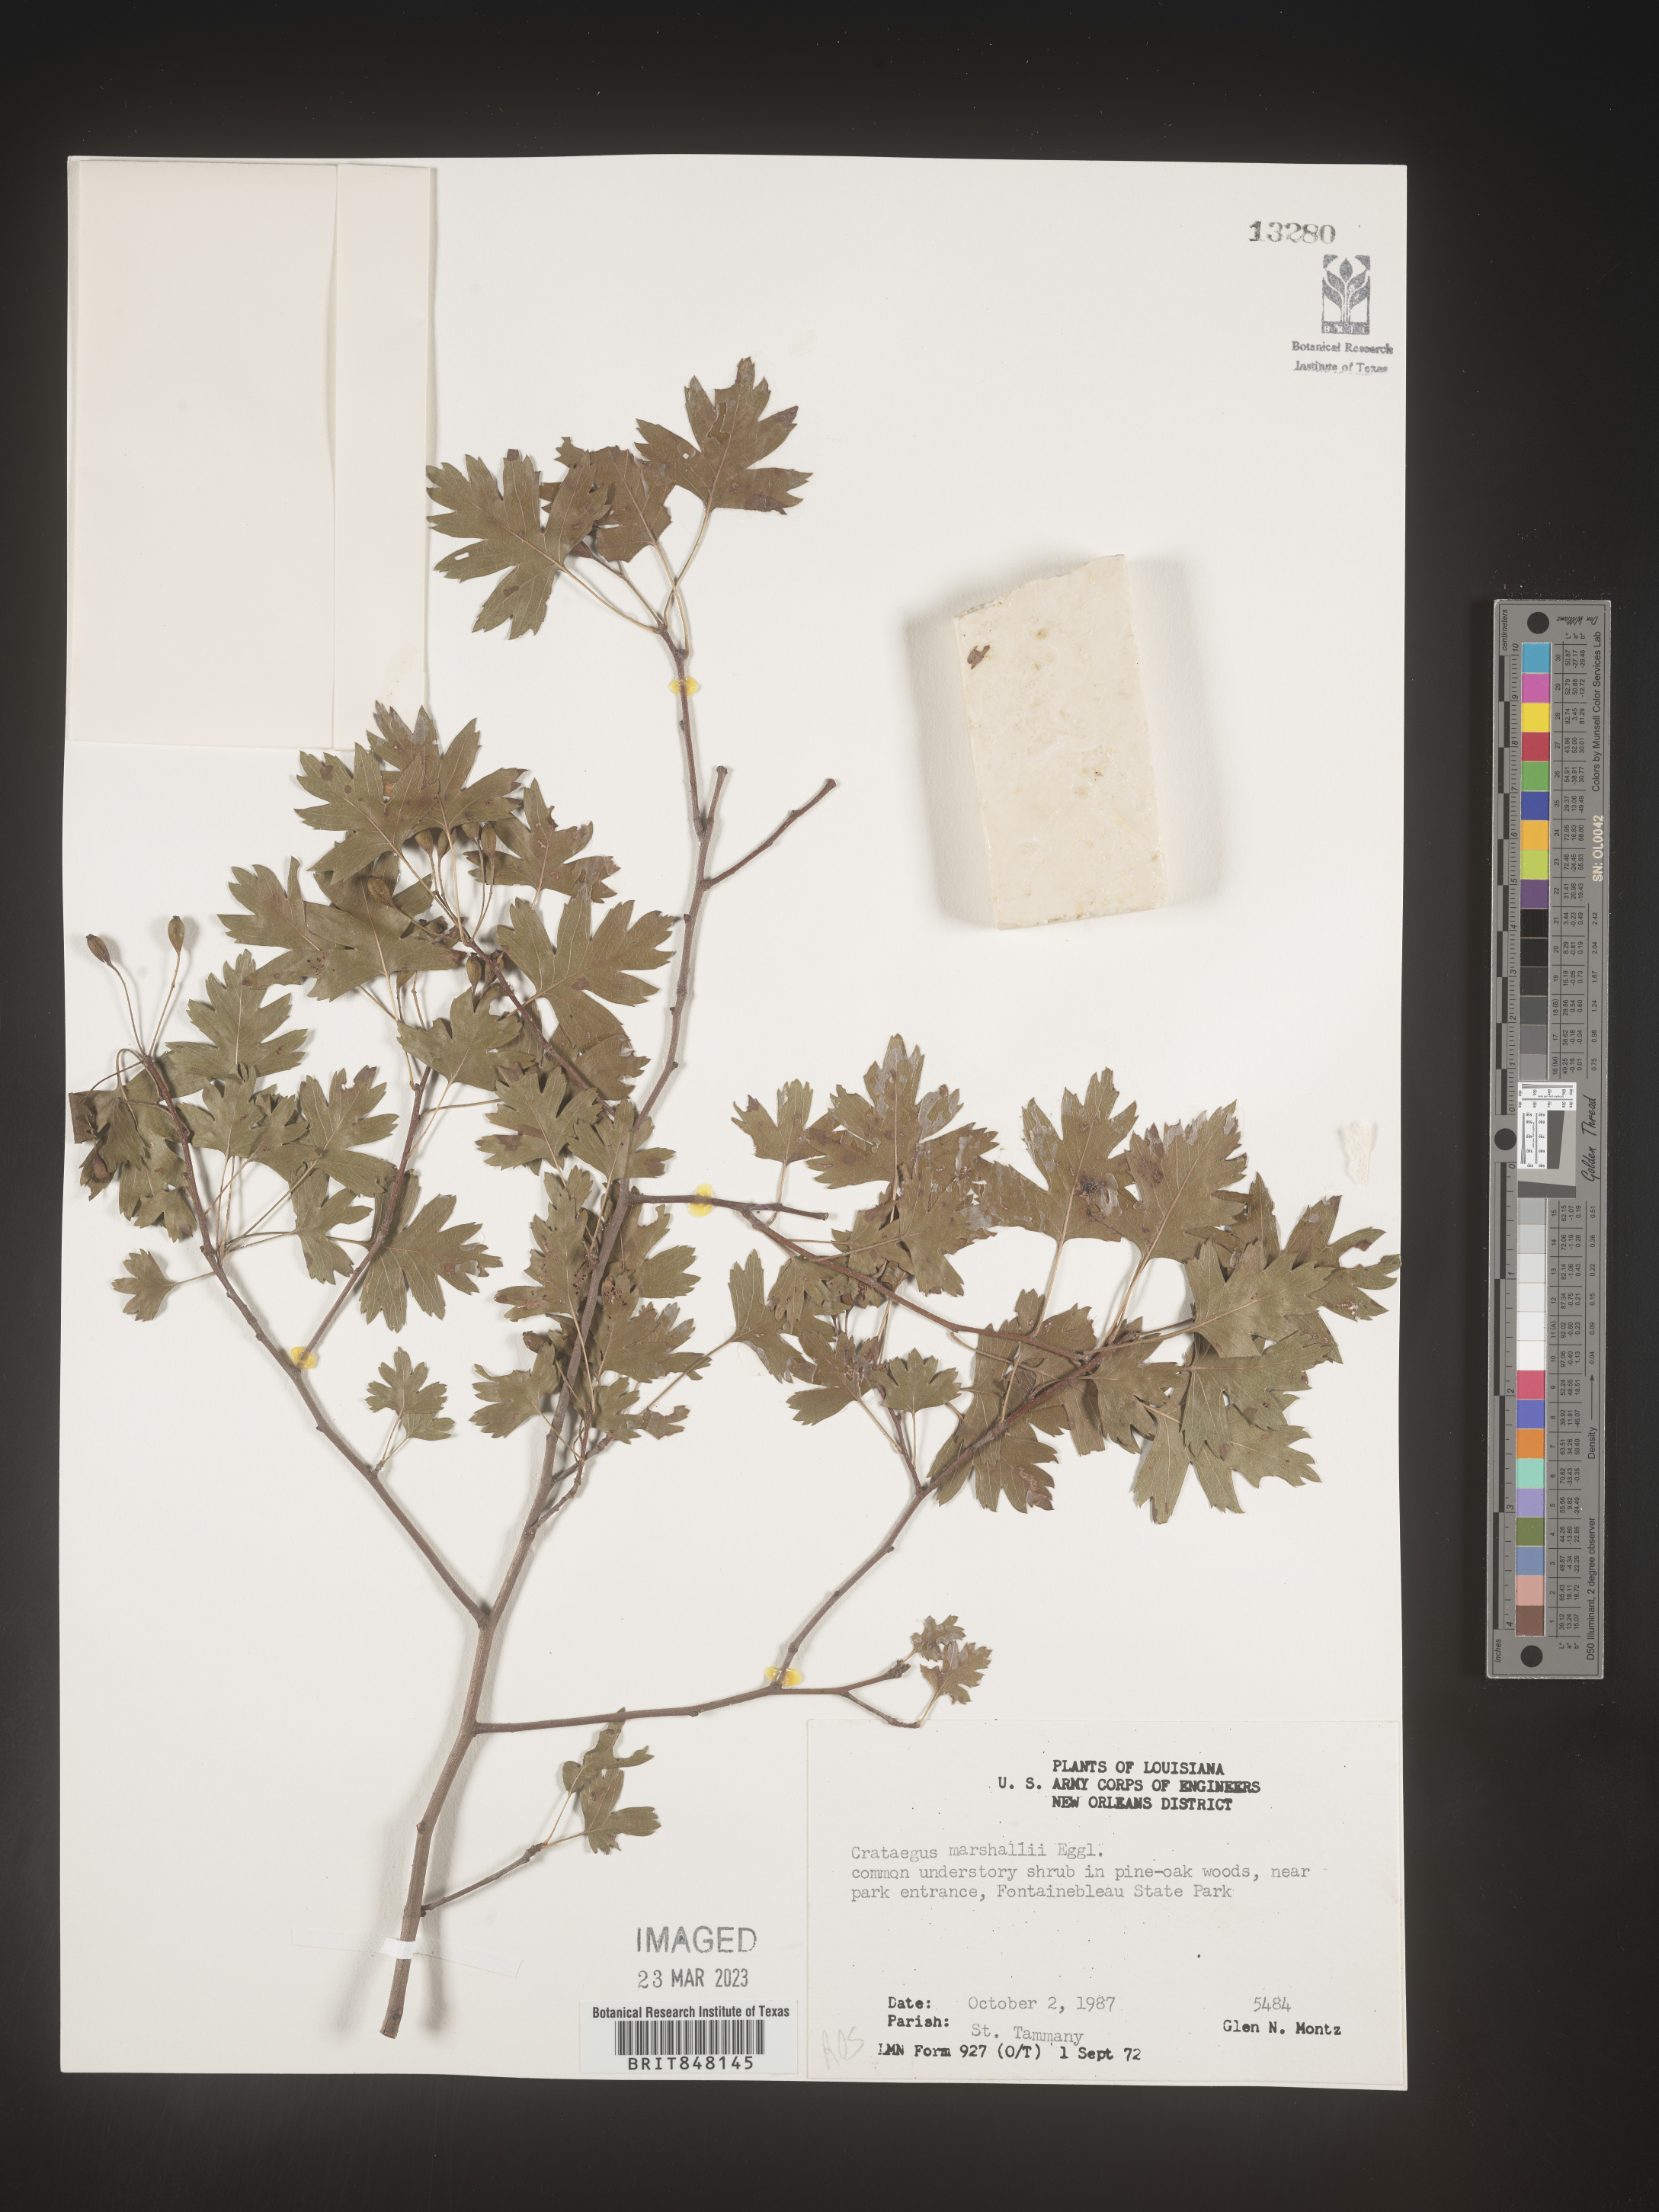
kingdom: Plantae
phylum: Tracheophyta
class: Magnoliopsida
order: Rosales
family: Rosaceae
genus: Crataegus
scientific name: Crataegus marshallii
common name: Parsley-hawthorn
